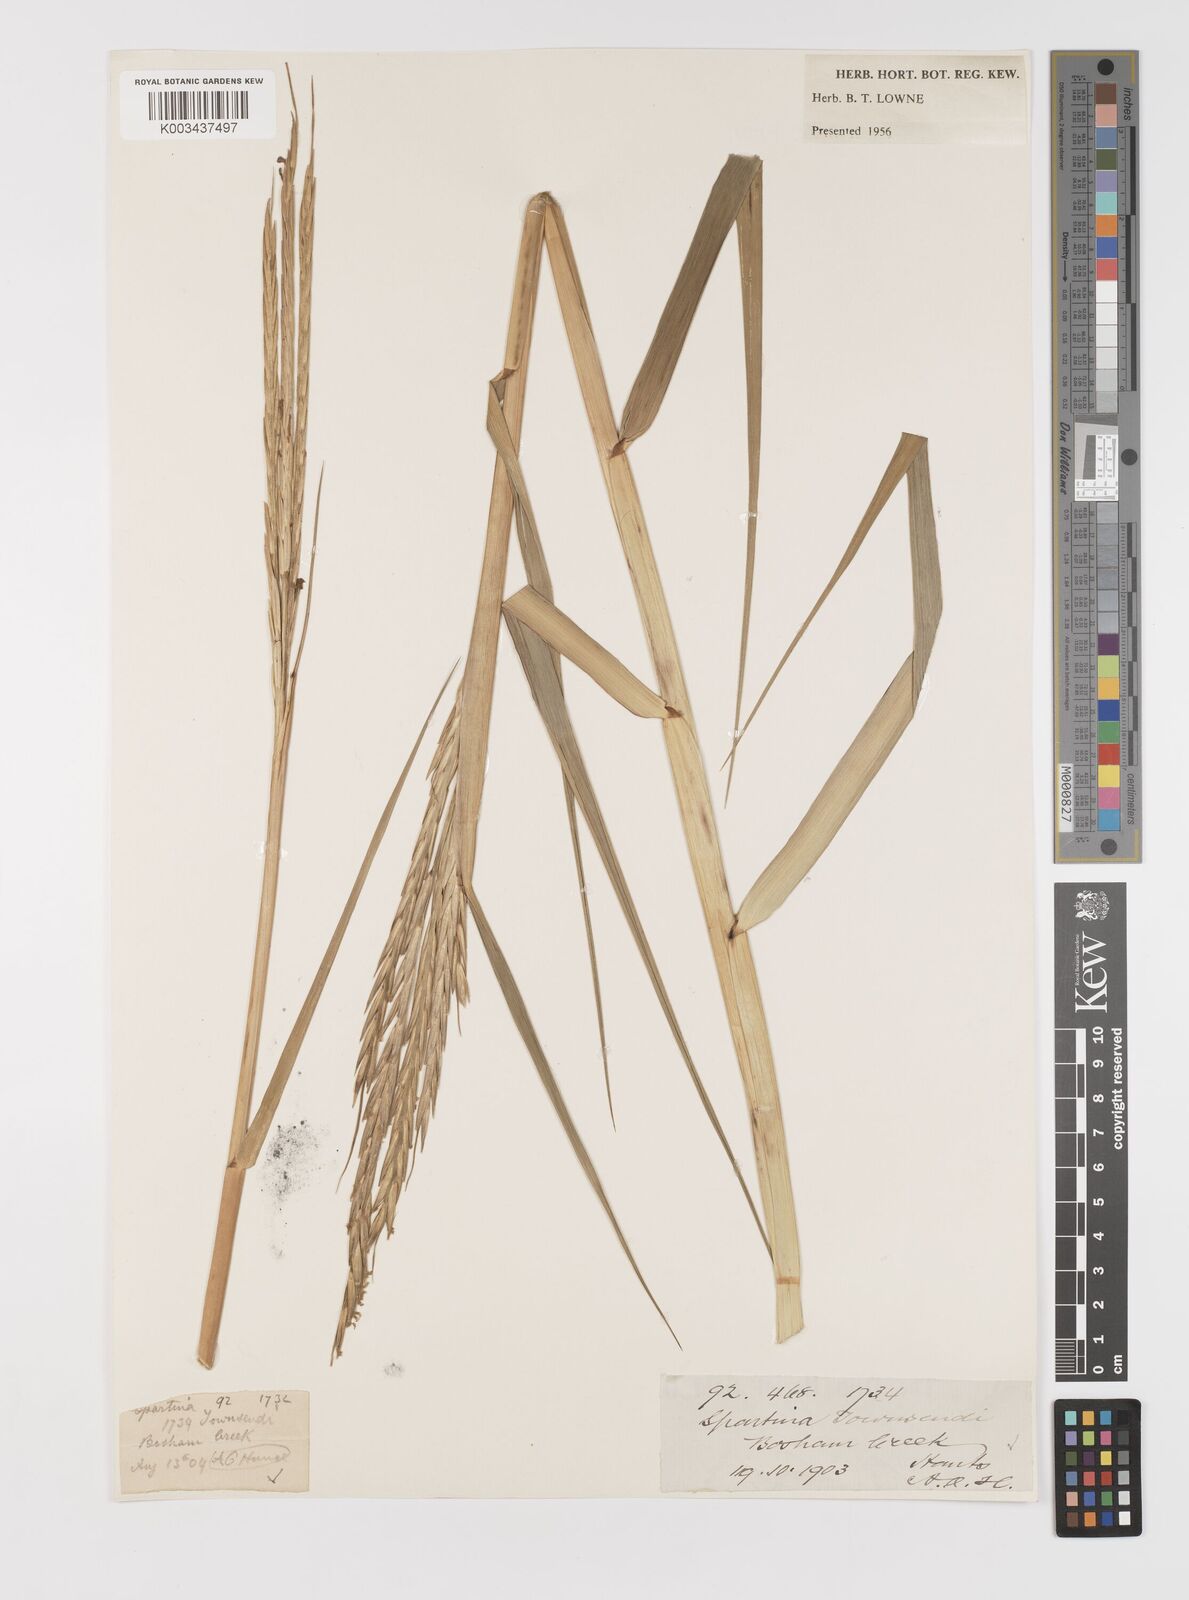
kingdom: Plantae
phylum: Tracheophyta
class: Liliopsida
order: Poales
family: Poaceae
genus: Sporobolus
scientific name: Sporobolus anglicus
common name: English cordgrass
